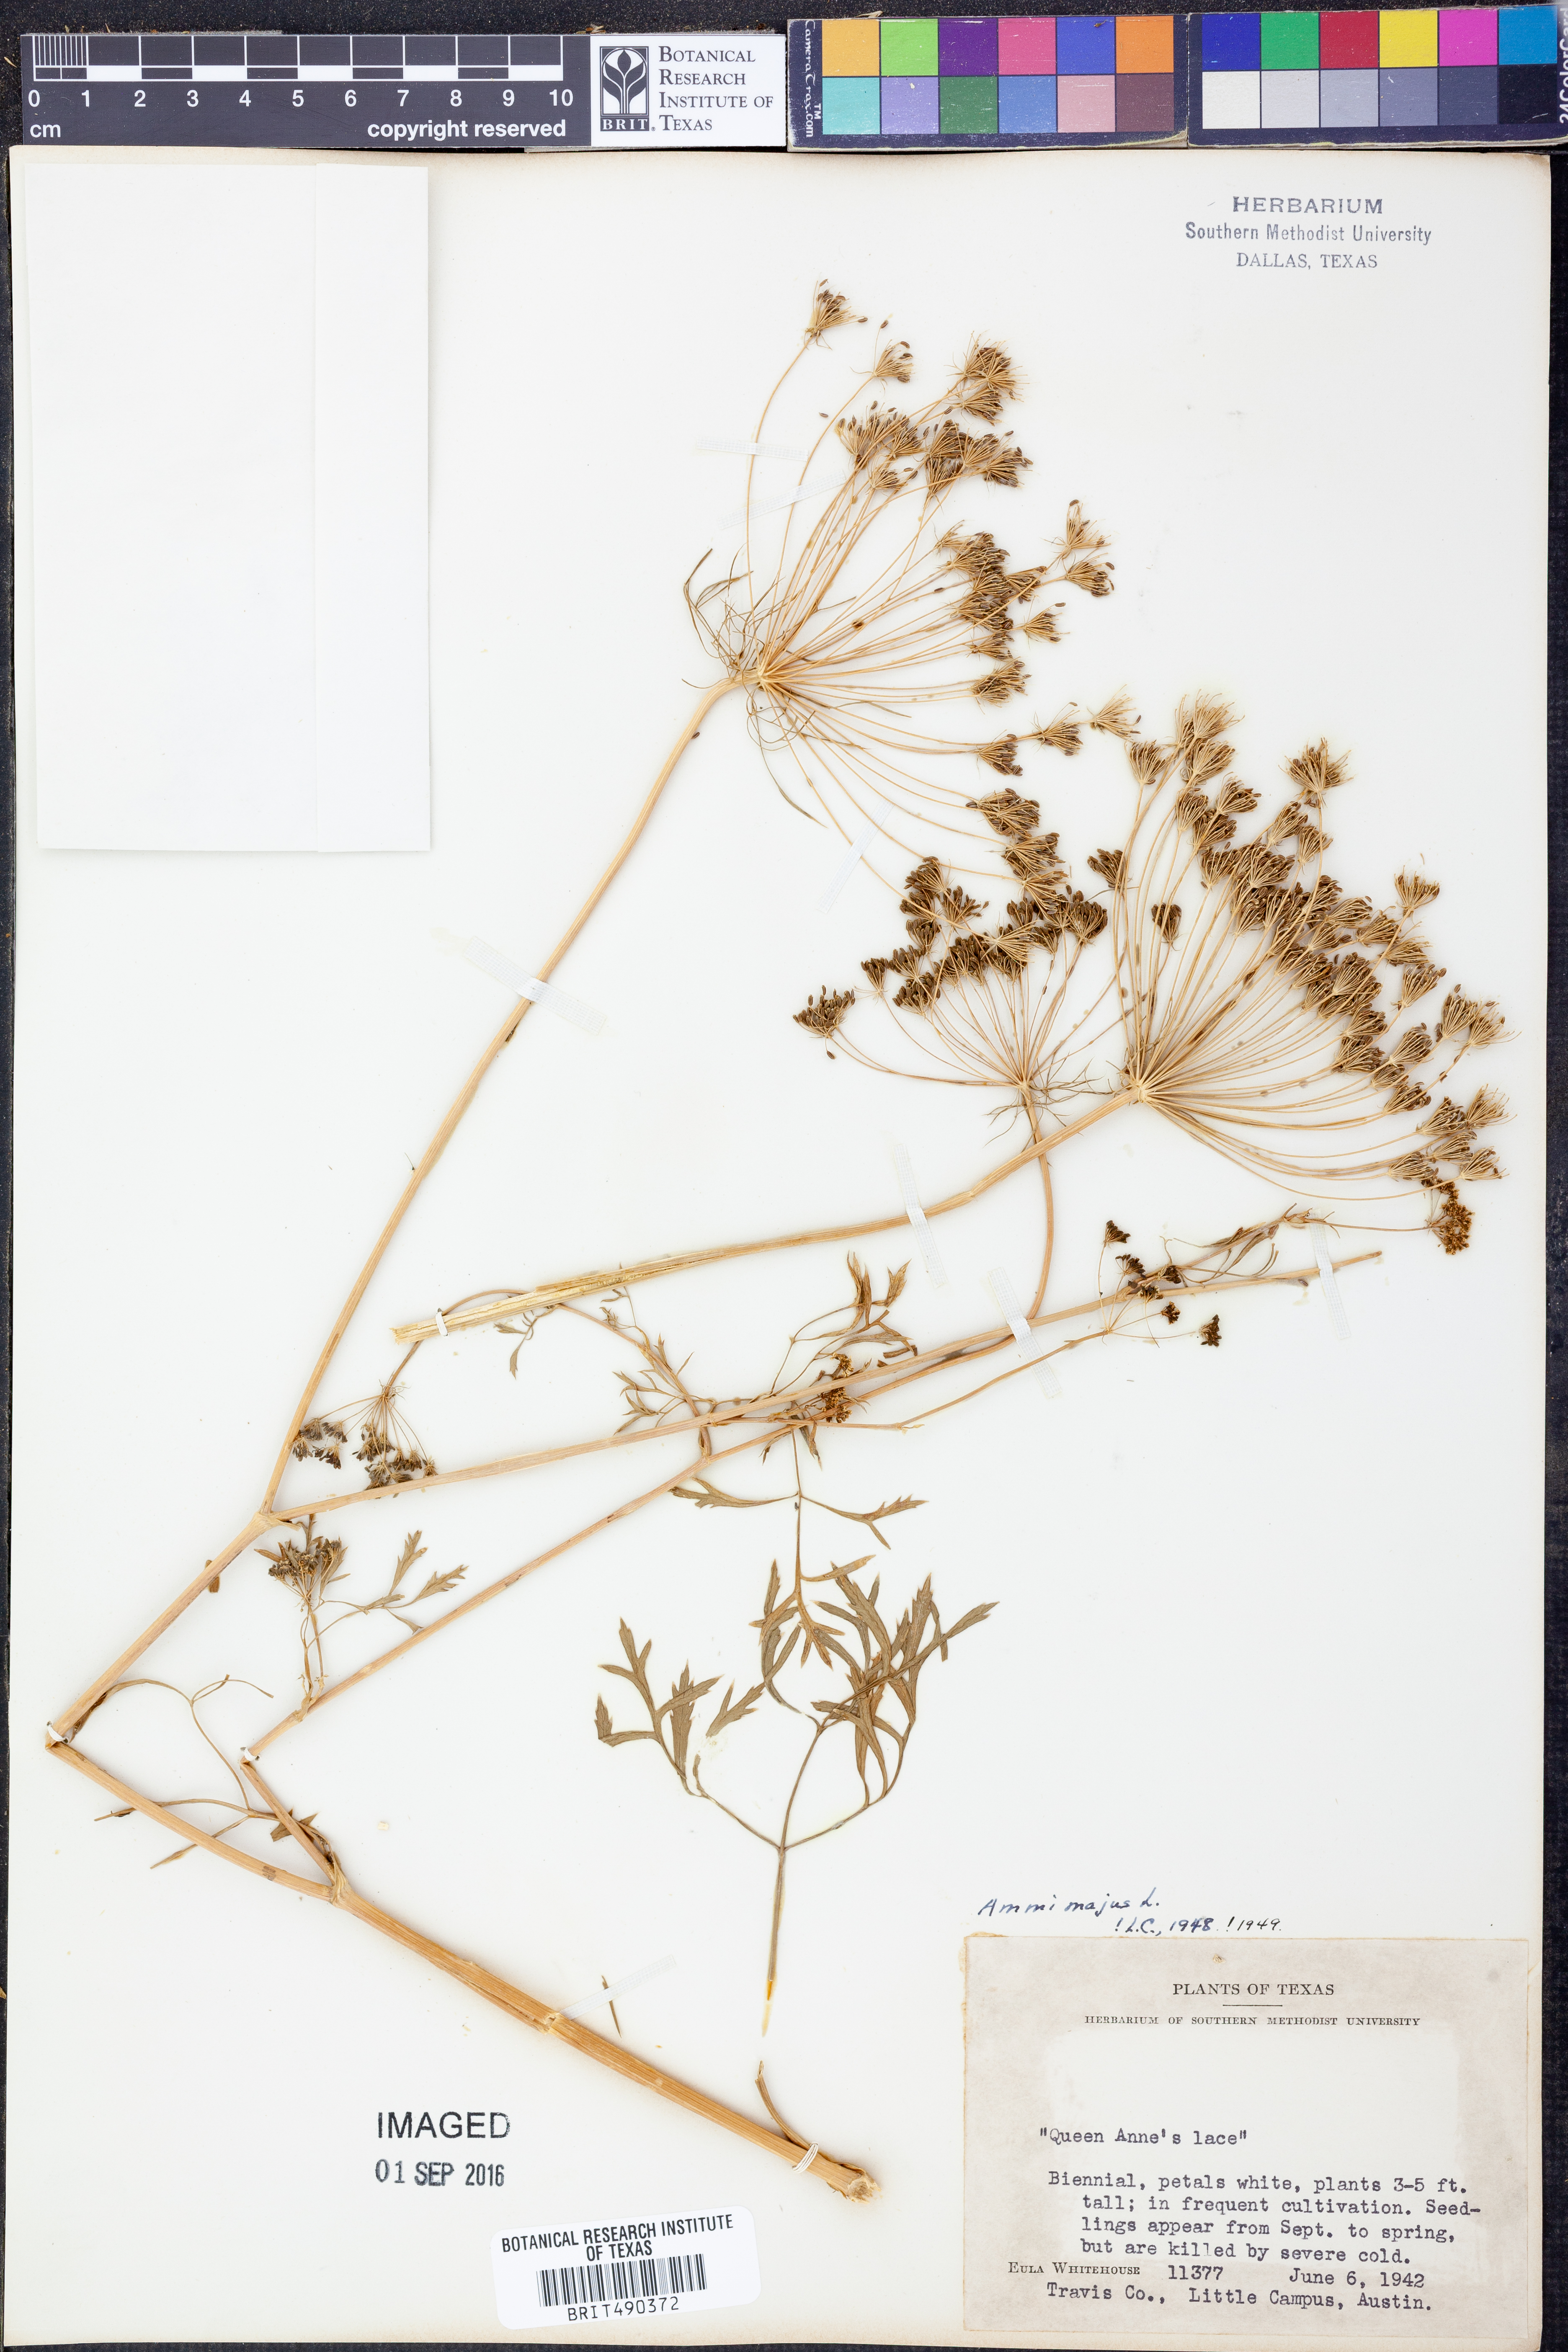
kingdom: Plantae
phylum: Tracheophyta
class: Magnoliopsida
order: Apiales
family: Apiaceae
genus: Ammi
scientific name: Ammi majus
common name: Bullwort
